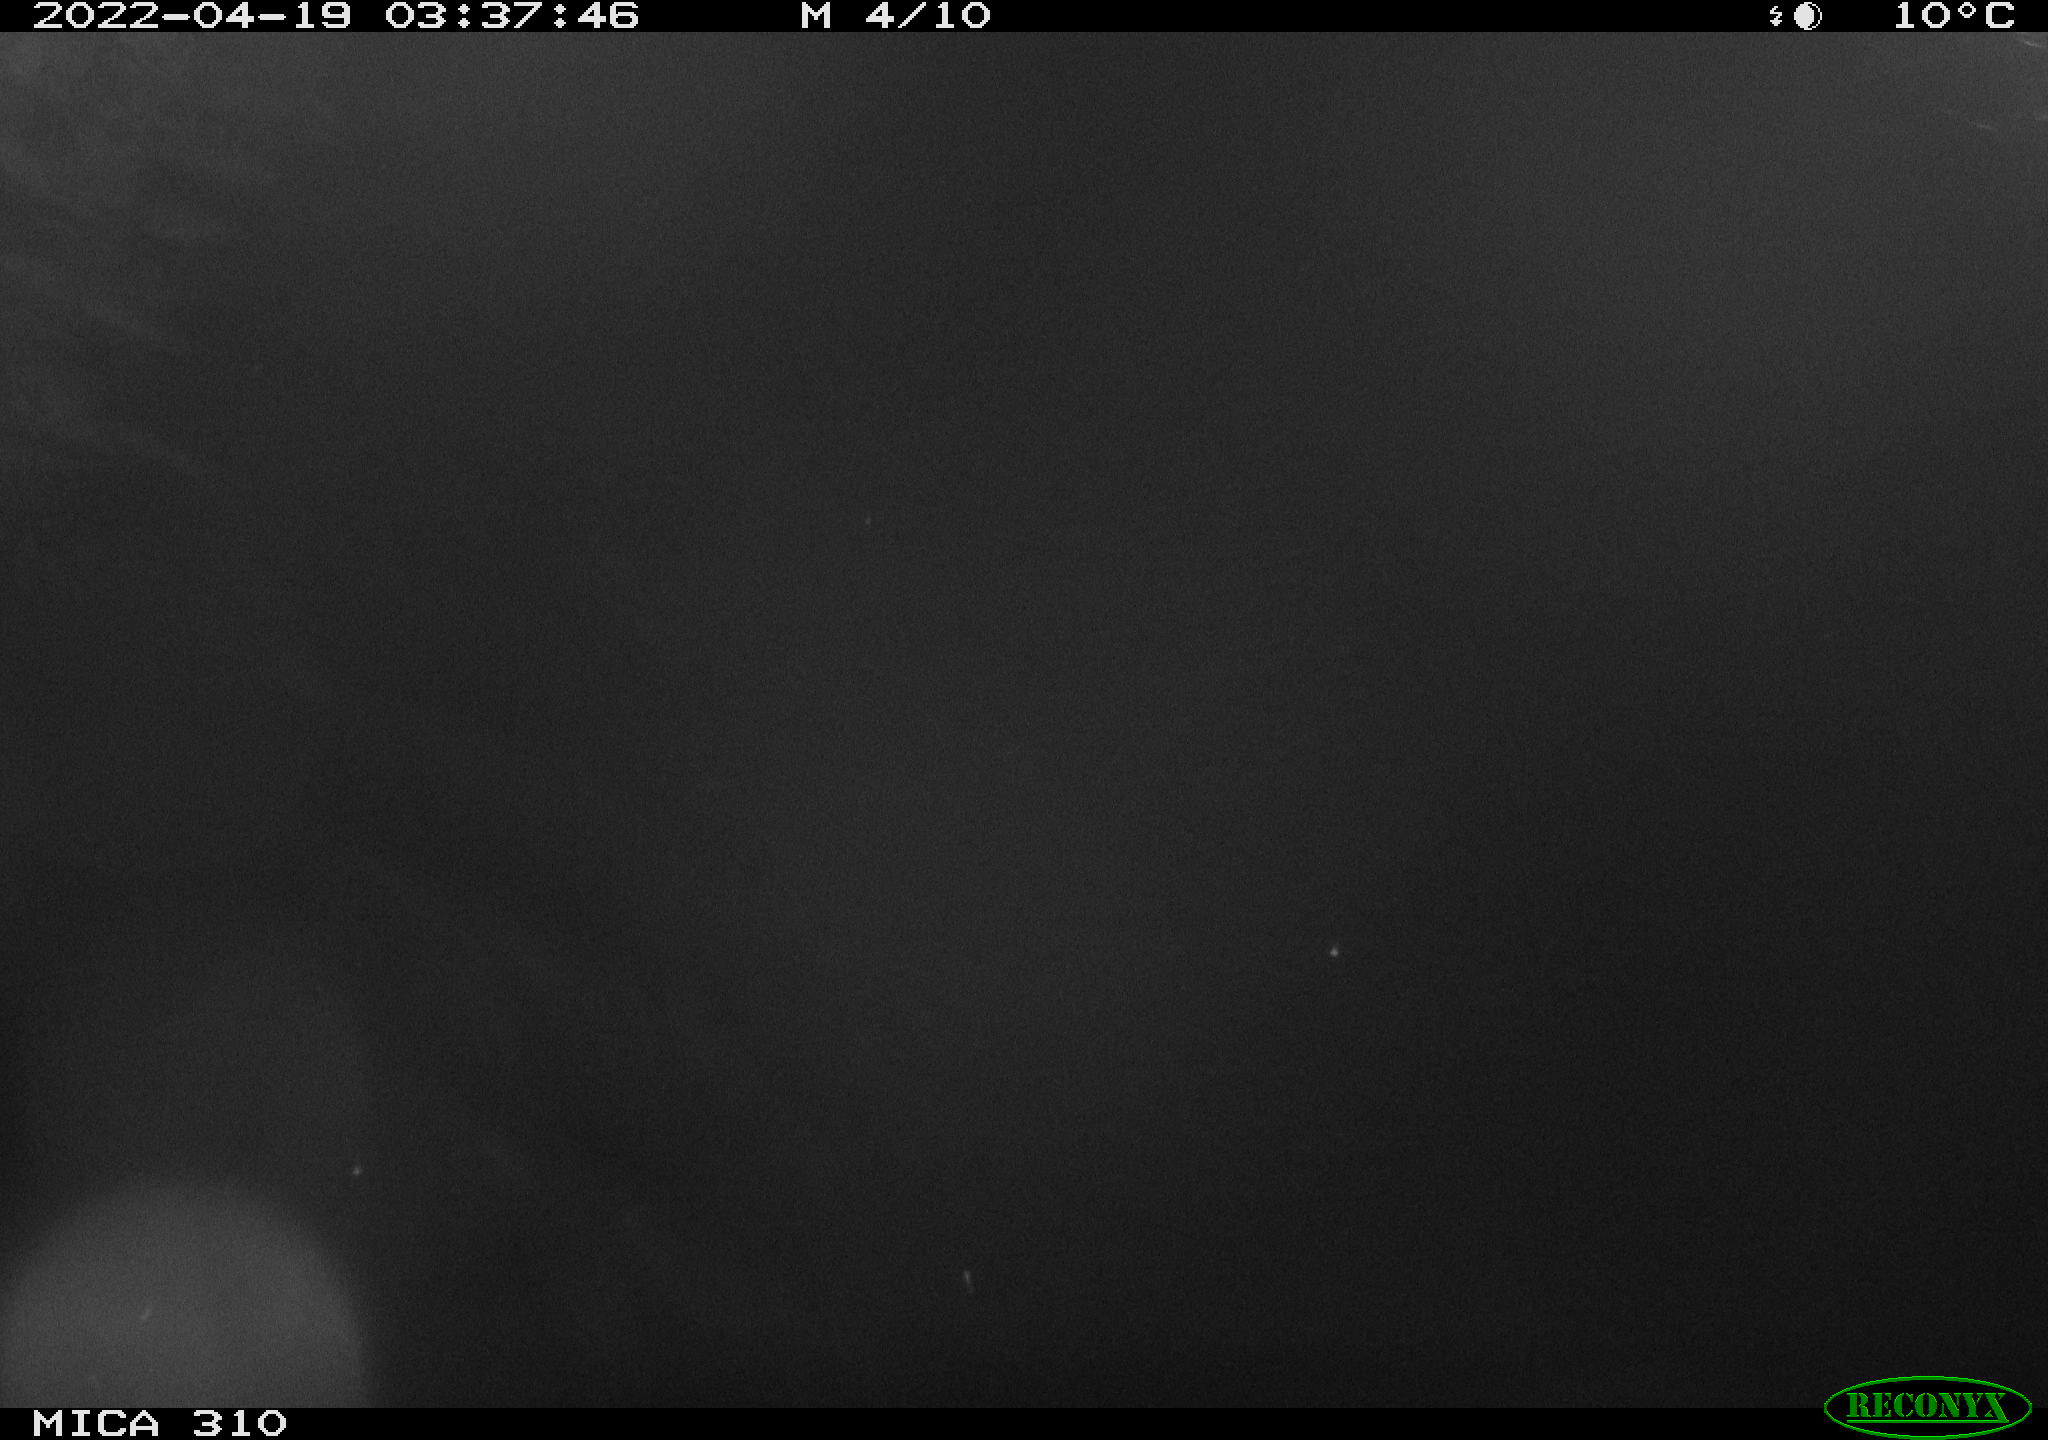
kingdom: Animalia
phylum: Chordata
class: Aves
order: Anseriformes
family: Anatidae
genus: Anas
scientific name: Anas platyrhynchos
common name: Mallard
